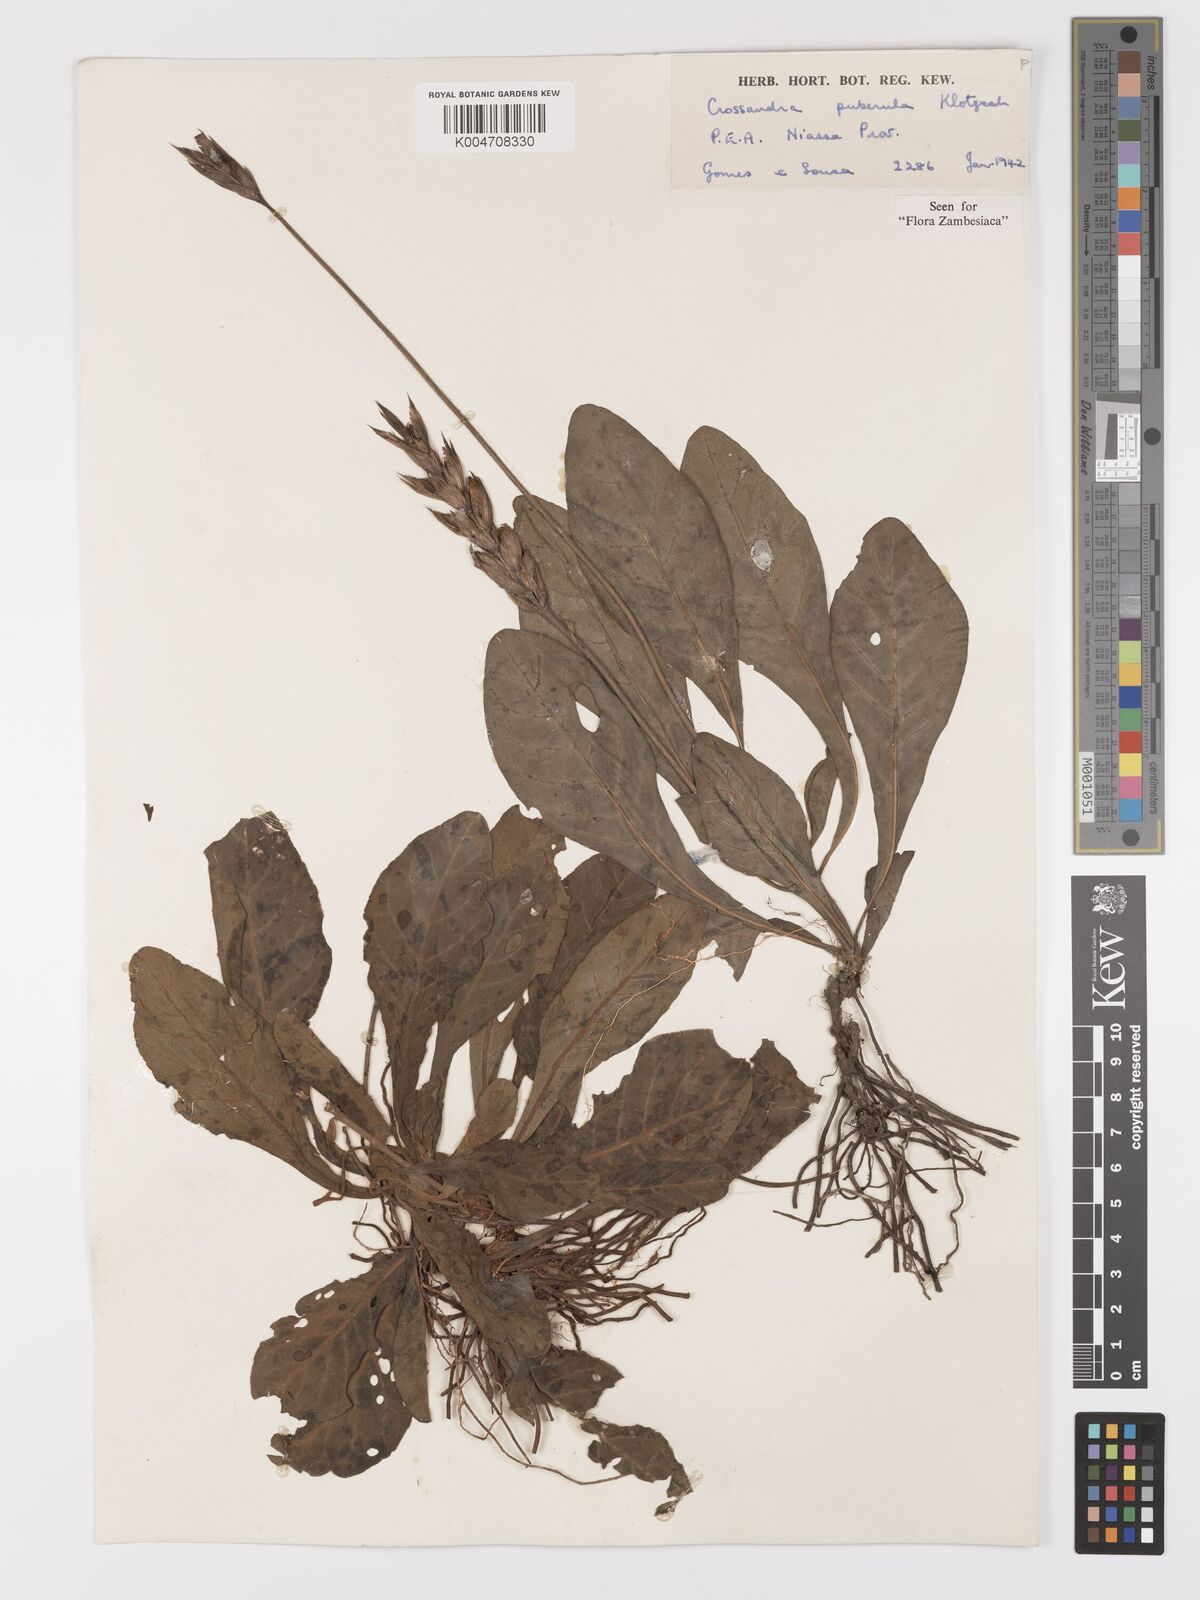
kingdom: Plantae
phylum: Tracheophyta
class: Magnoliopsida
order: Lamiales
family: Acanthaceae
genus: Crossandra
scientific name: Crossandra puberula
